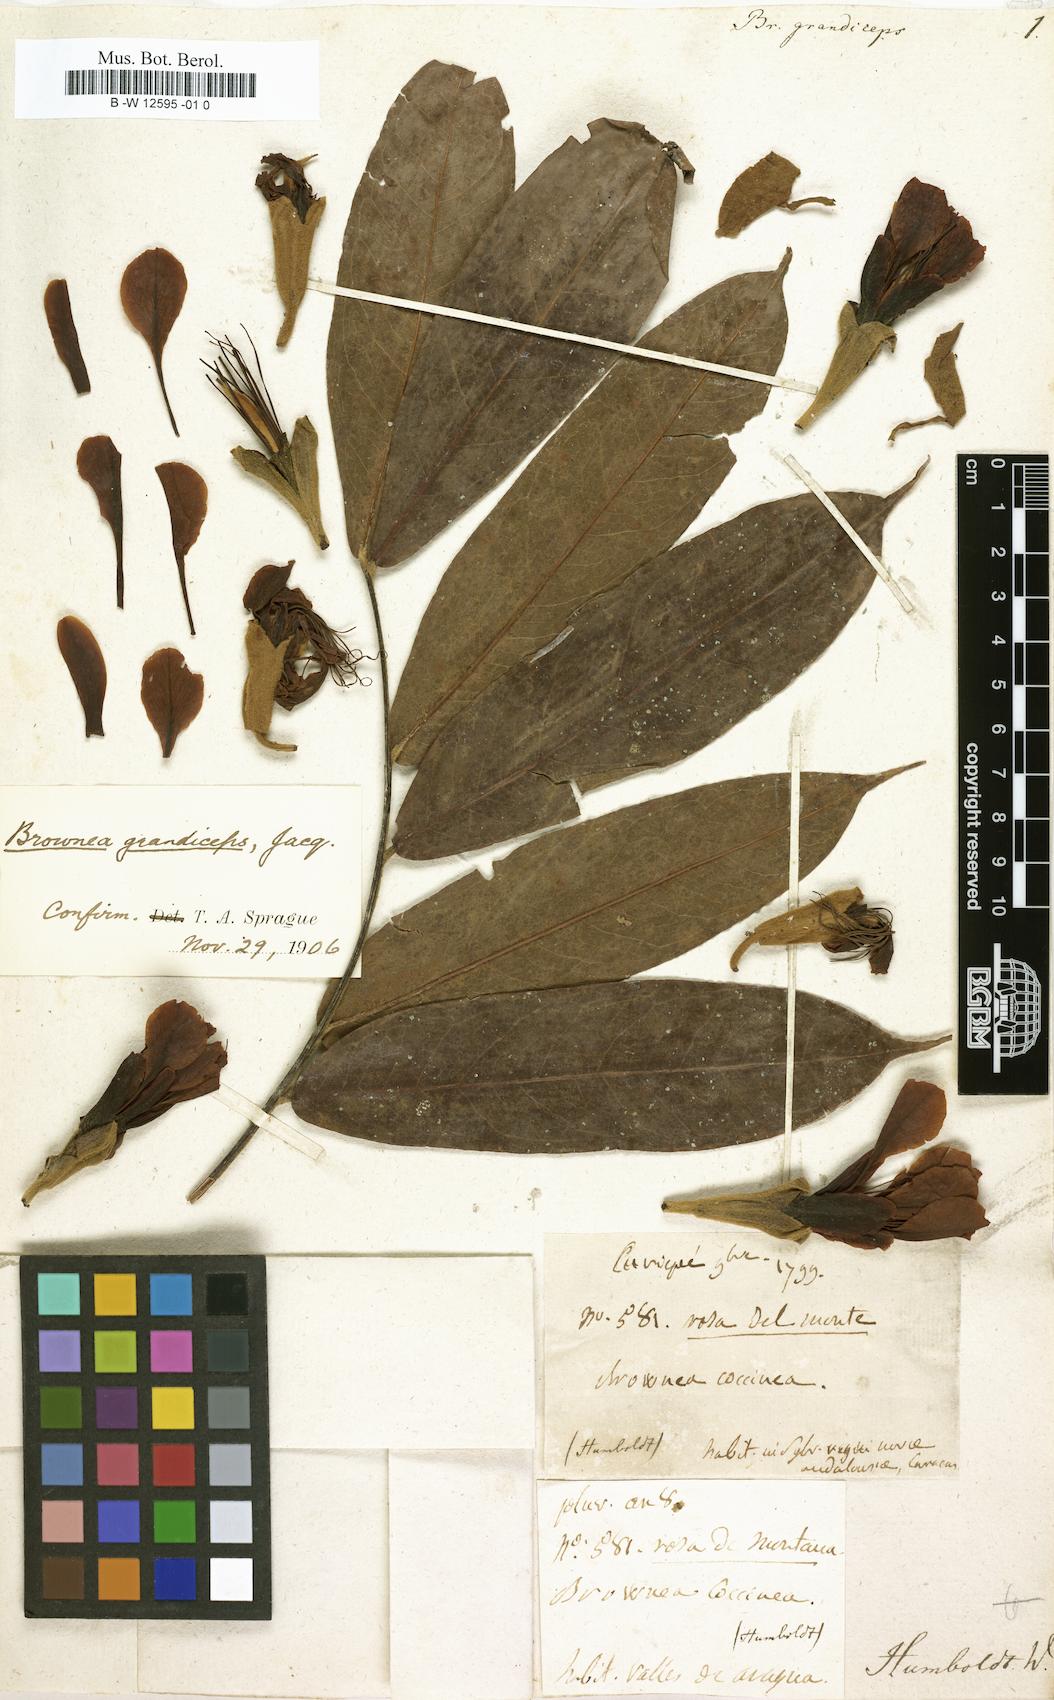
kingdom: Plantae
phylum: Tracheophyta
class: Magnoliopsida
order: Fabales
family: Fabaceae
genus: Brownea
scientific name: Brownea grandiceps
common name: Rose-of-venezuela
